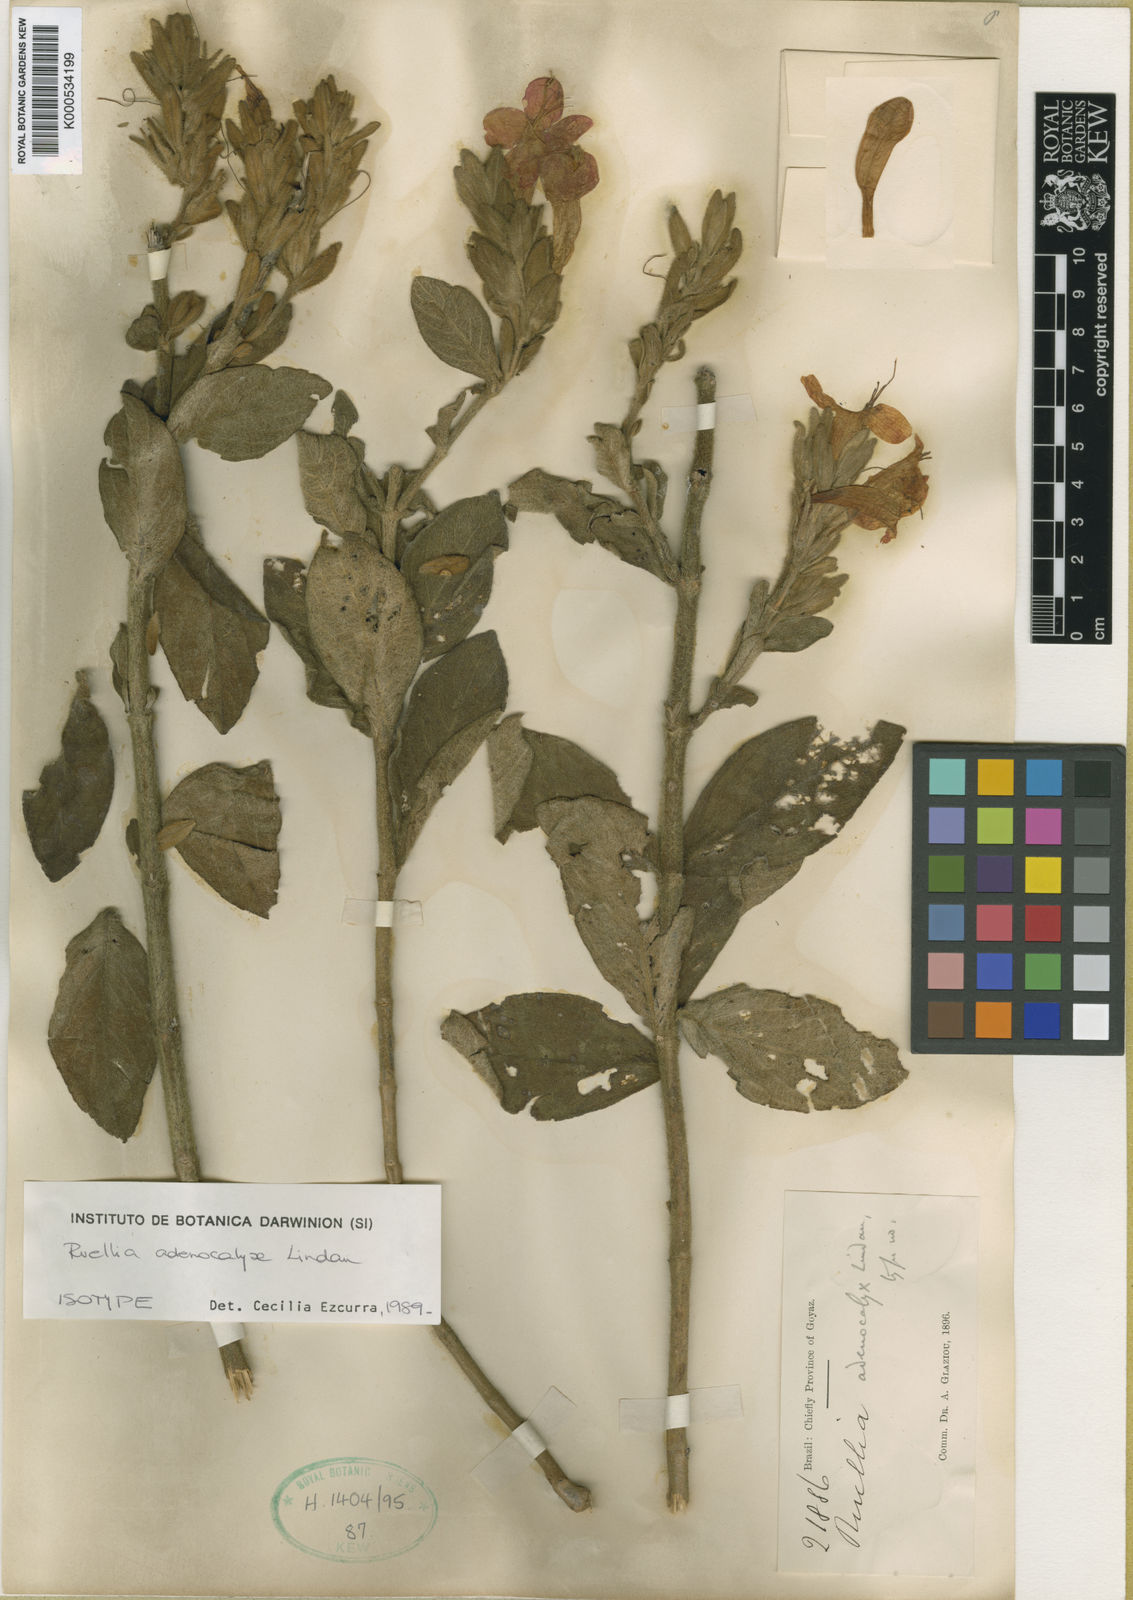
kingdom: Plantae
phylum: Tracheophyta
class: Magnoliopsida
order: Lamiales
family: Acanthaceae
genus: Ruellia
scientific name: Ruellia adenocalyx
